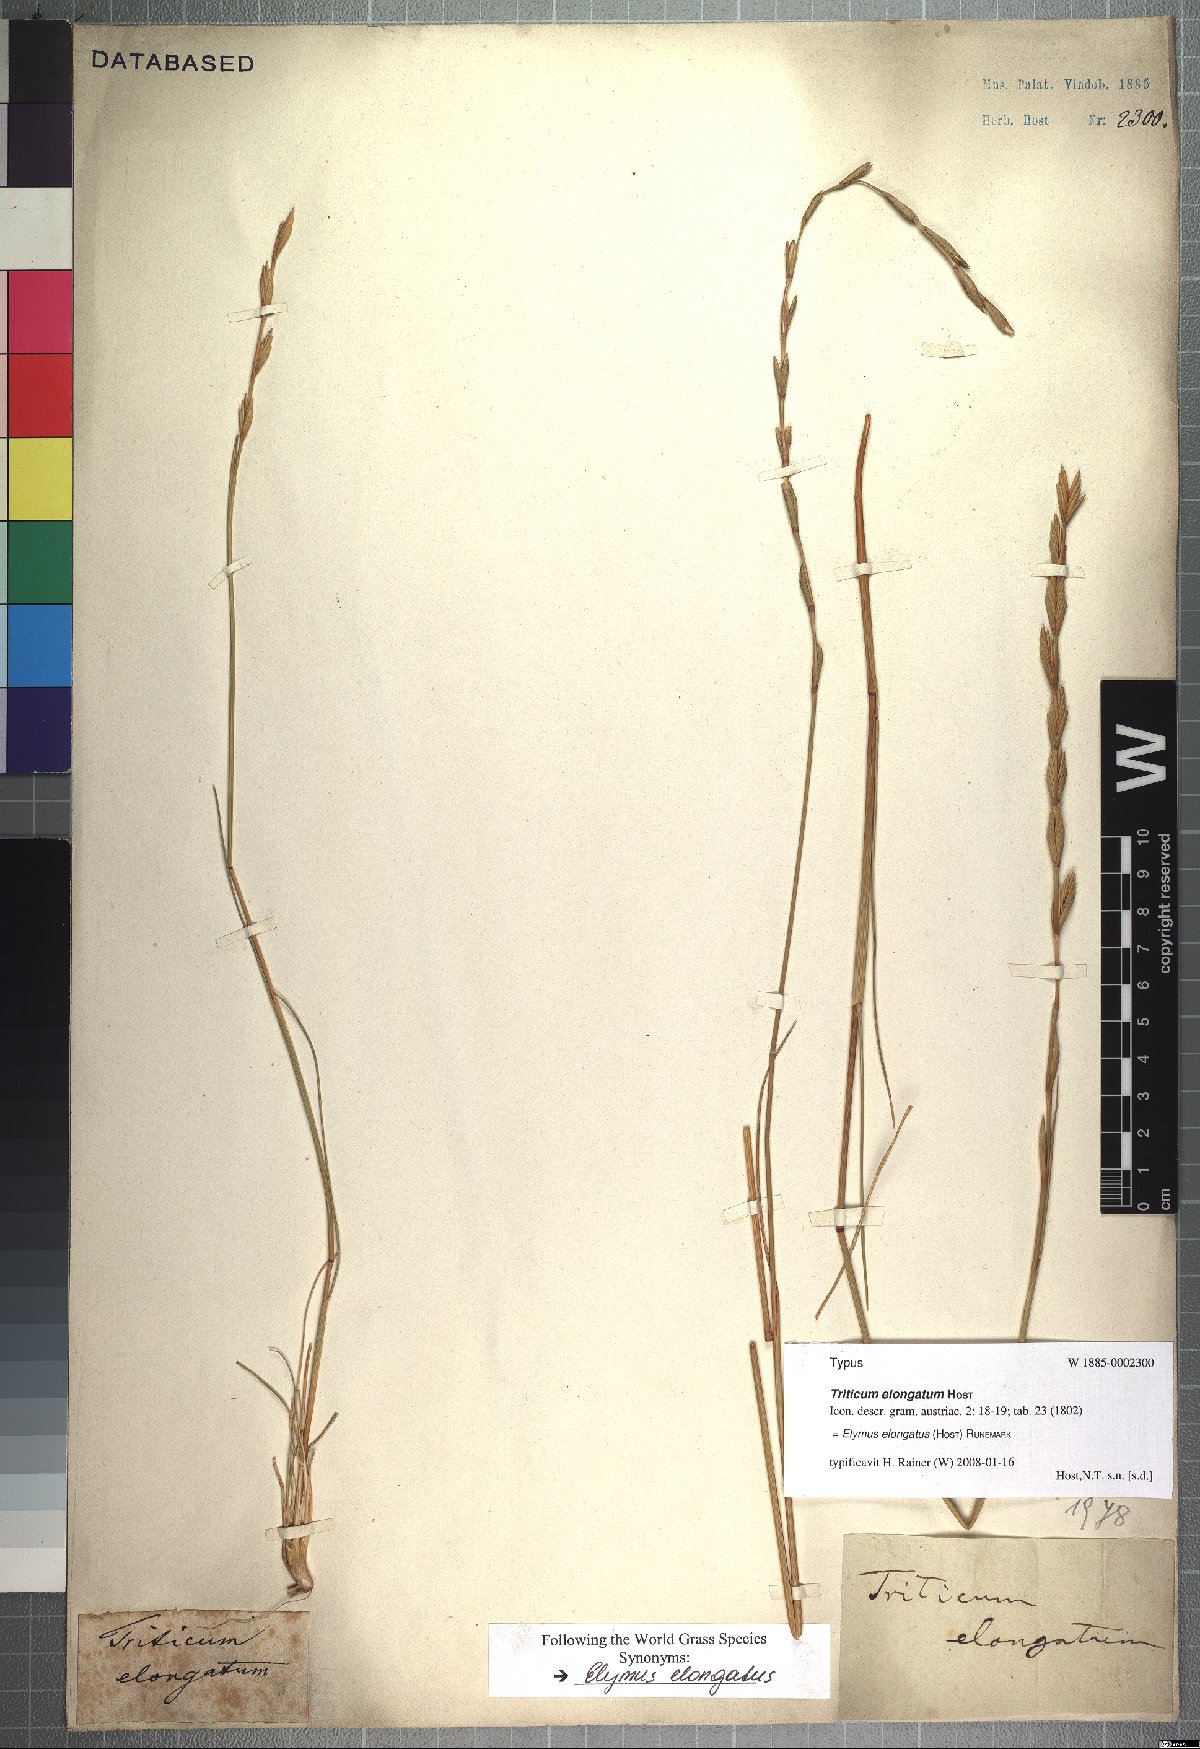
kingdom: Plantae
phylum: Tracheophyta
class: Liliopsida
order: Poales
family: Poaceae
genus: Thinopyrum
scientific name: Thinopyrum elongatum
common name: Tall wheatgrass
